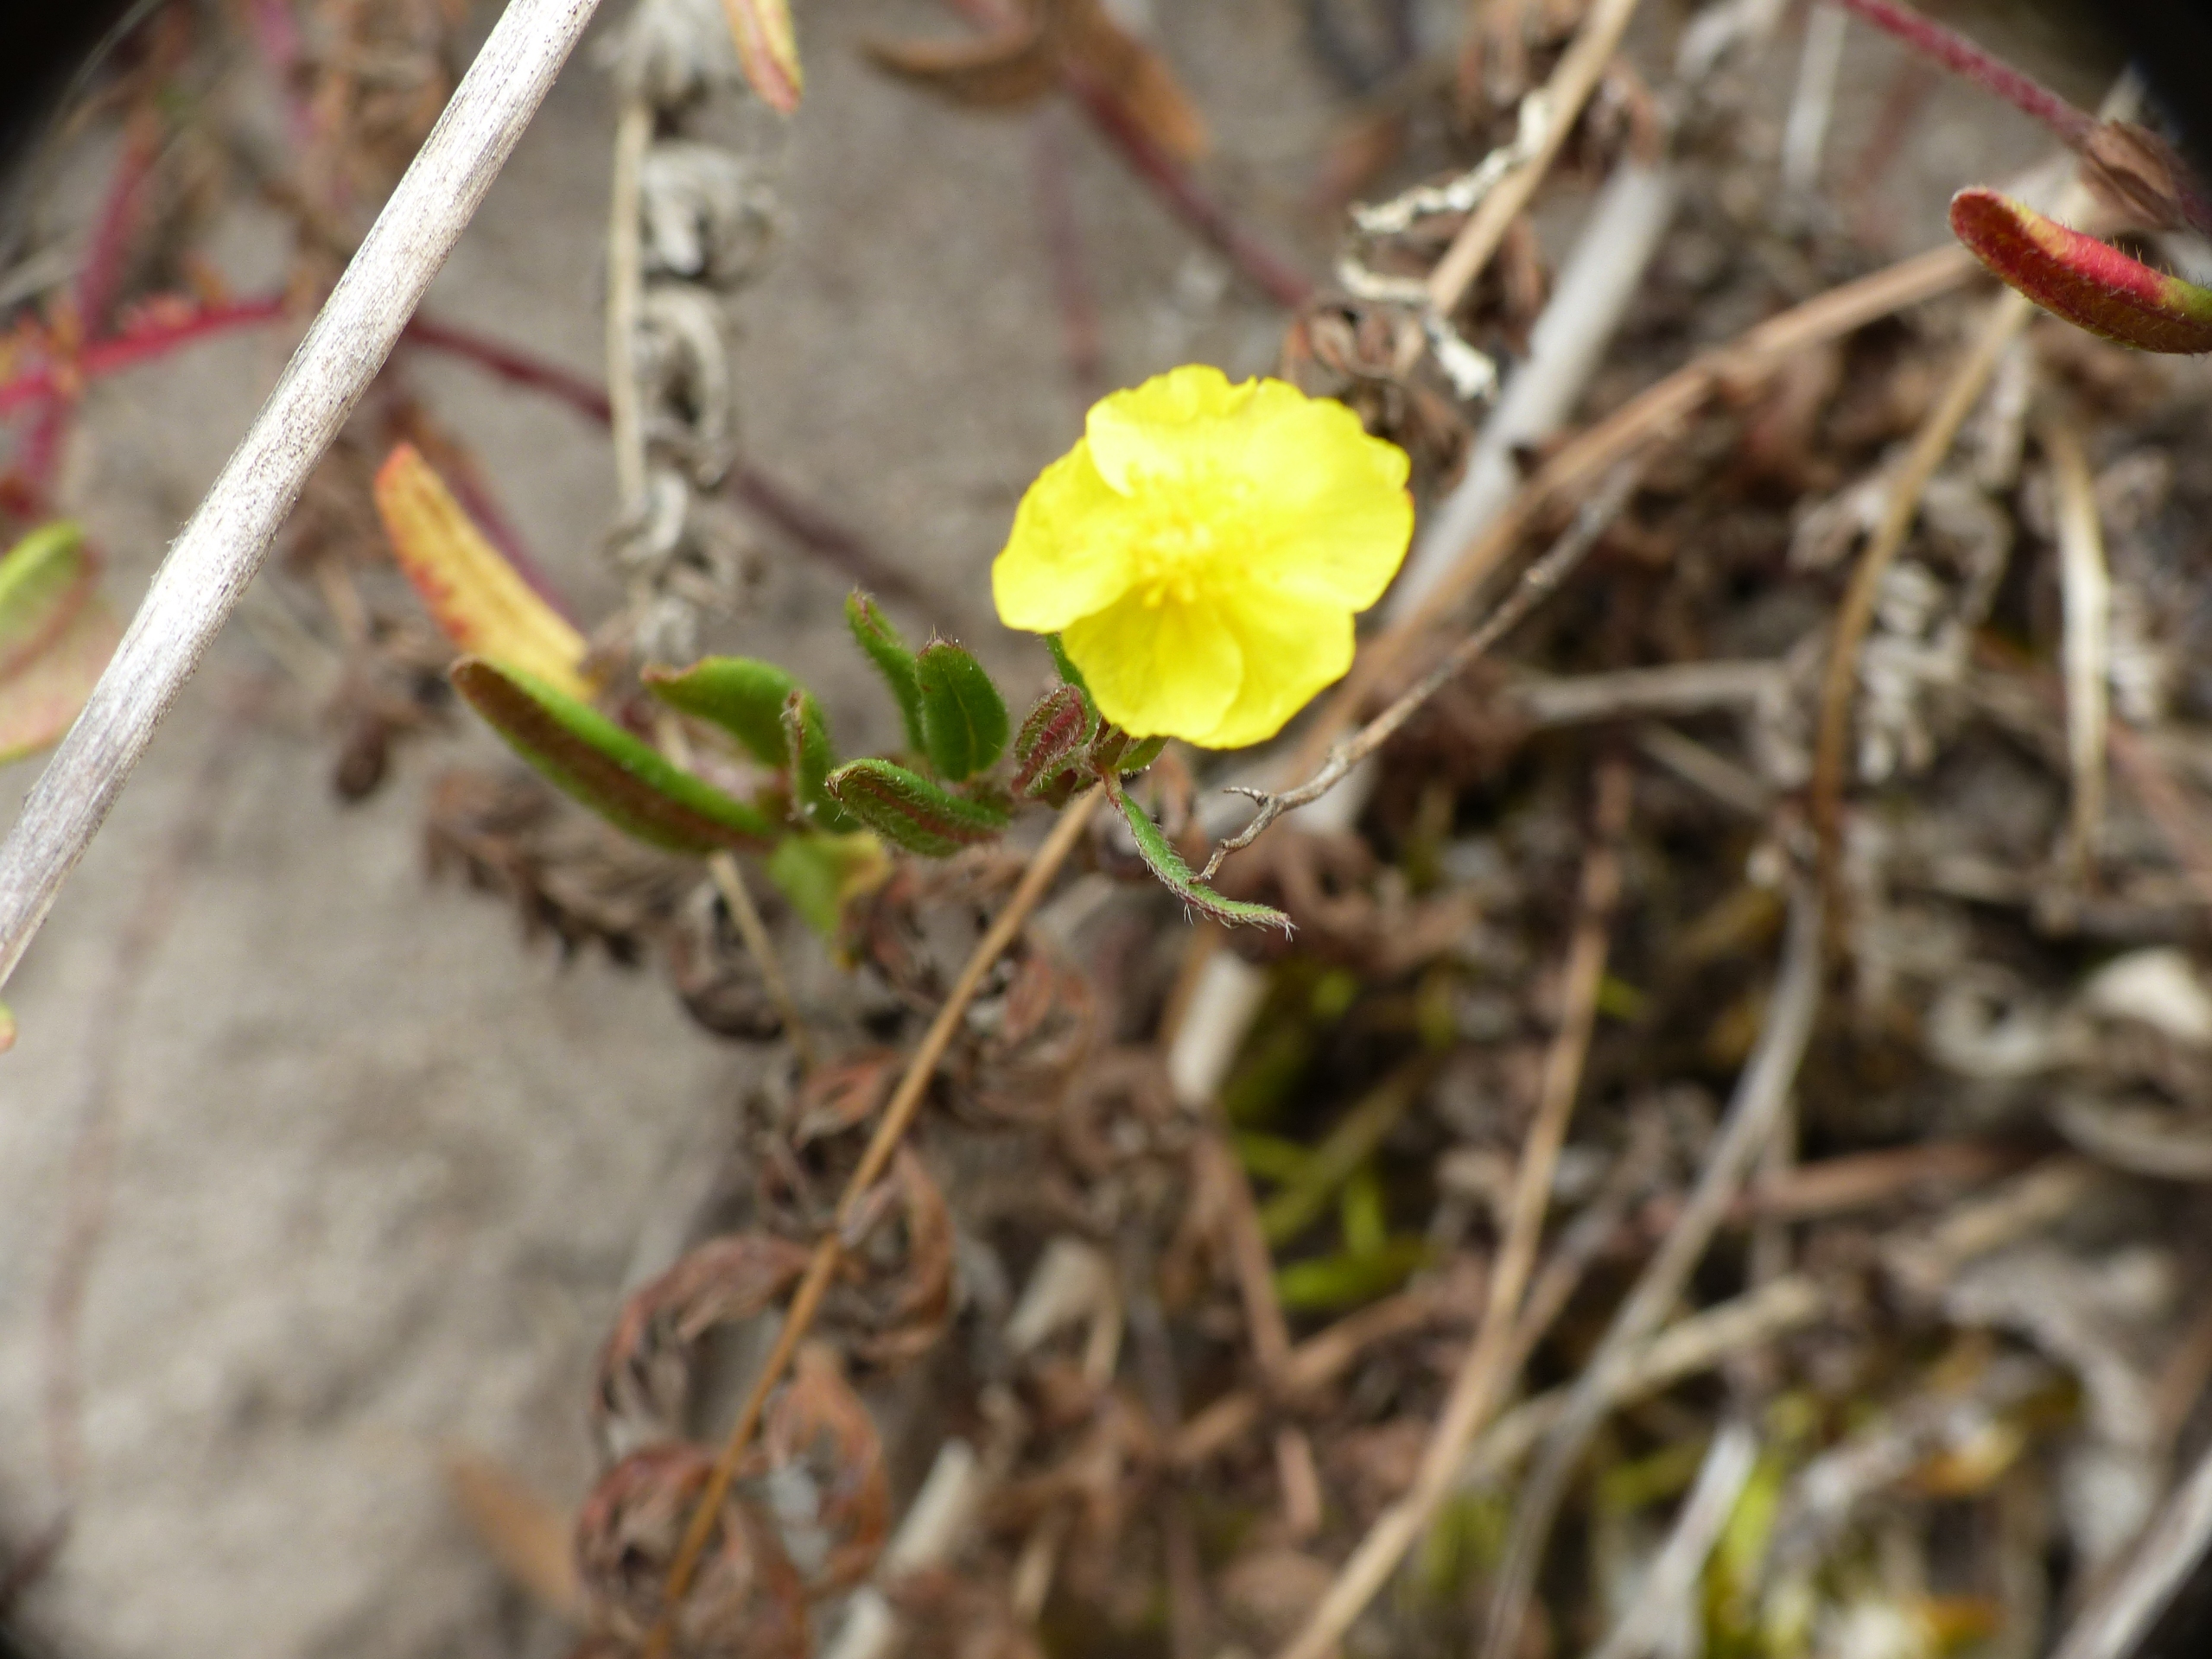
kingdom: Plantae
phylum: Tracheophyta
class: Magnoliopsida
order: Malvales
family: Cistaceae
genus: Helianthemum
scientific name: Helianthemum nummularium
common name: Soløje
